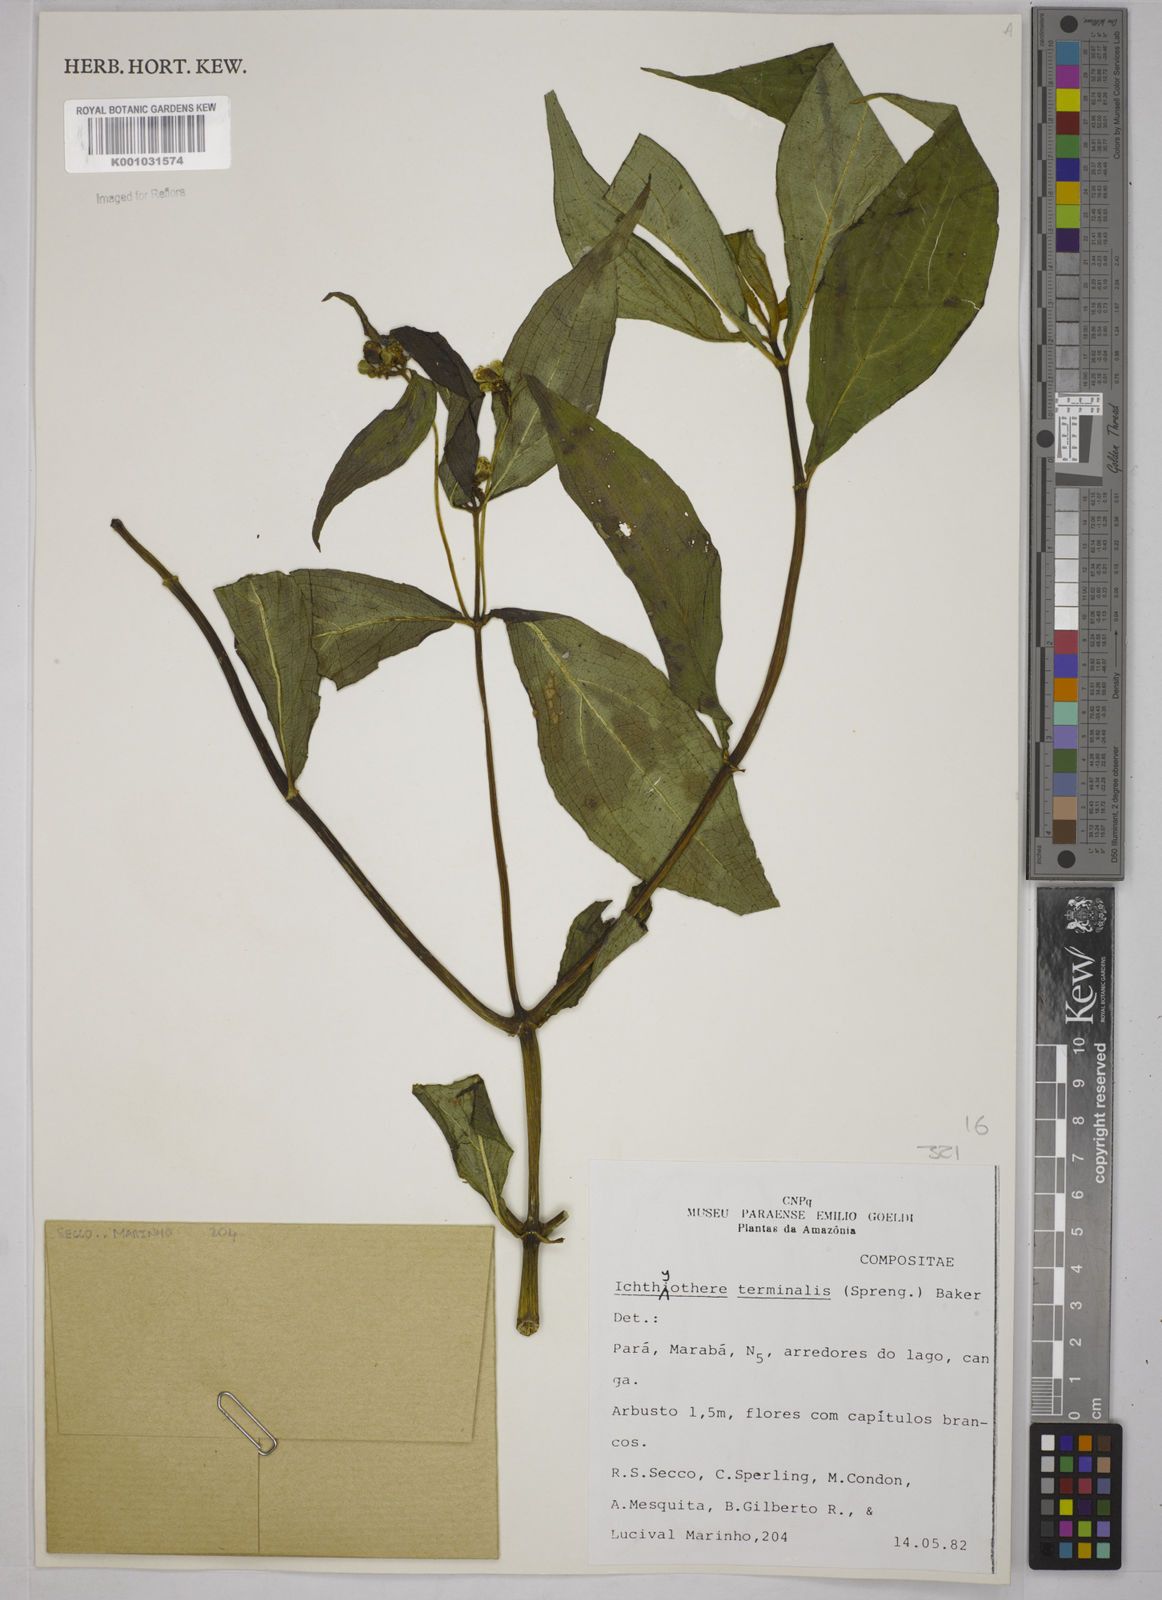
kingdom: Plantae
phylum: Tracheophyta
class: Magnoliopsida
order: Asterales
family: Asteraceae
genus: Ichthyothere
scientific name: Ichthyothere cunabi
